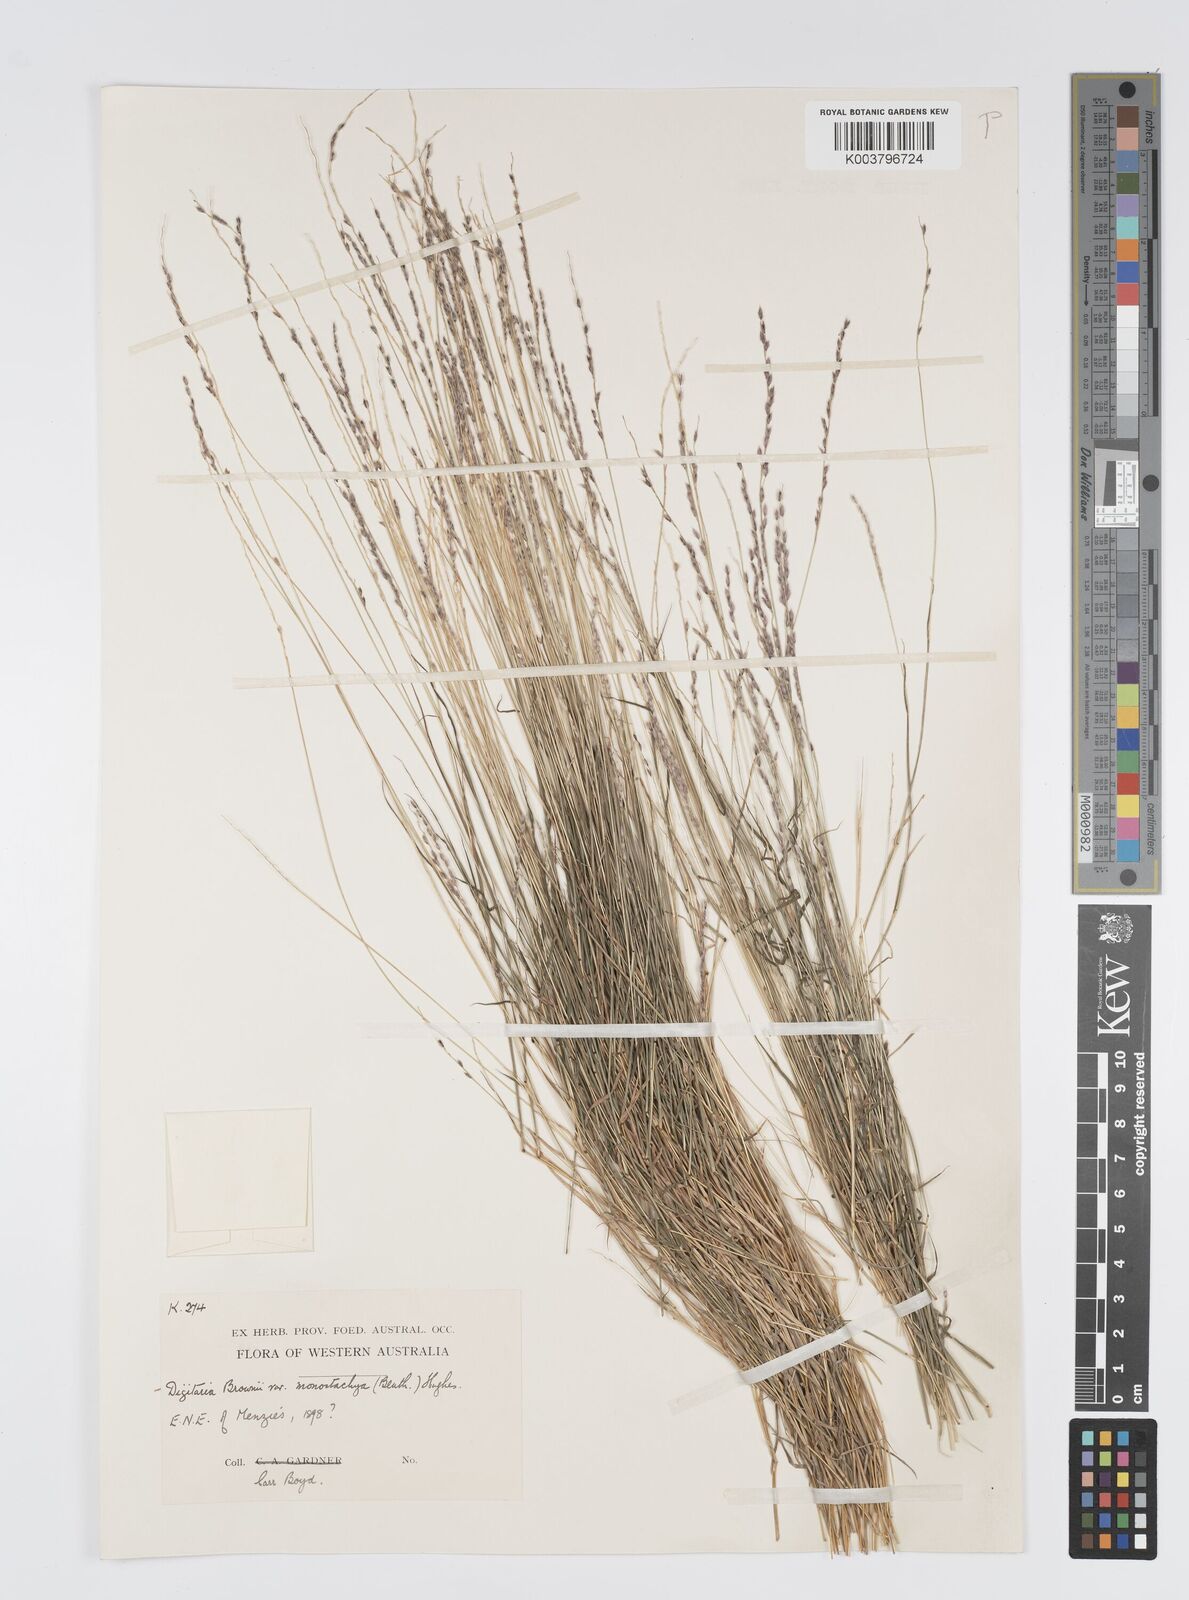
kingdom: Plantae
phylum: Tracheophyta
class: Liliopsida
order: Poales
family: Poaceae
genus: Digitaria
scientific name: Digitaria brownii
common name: Cotton grass
